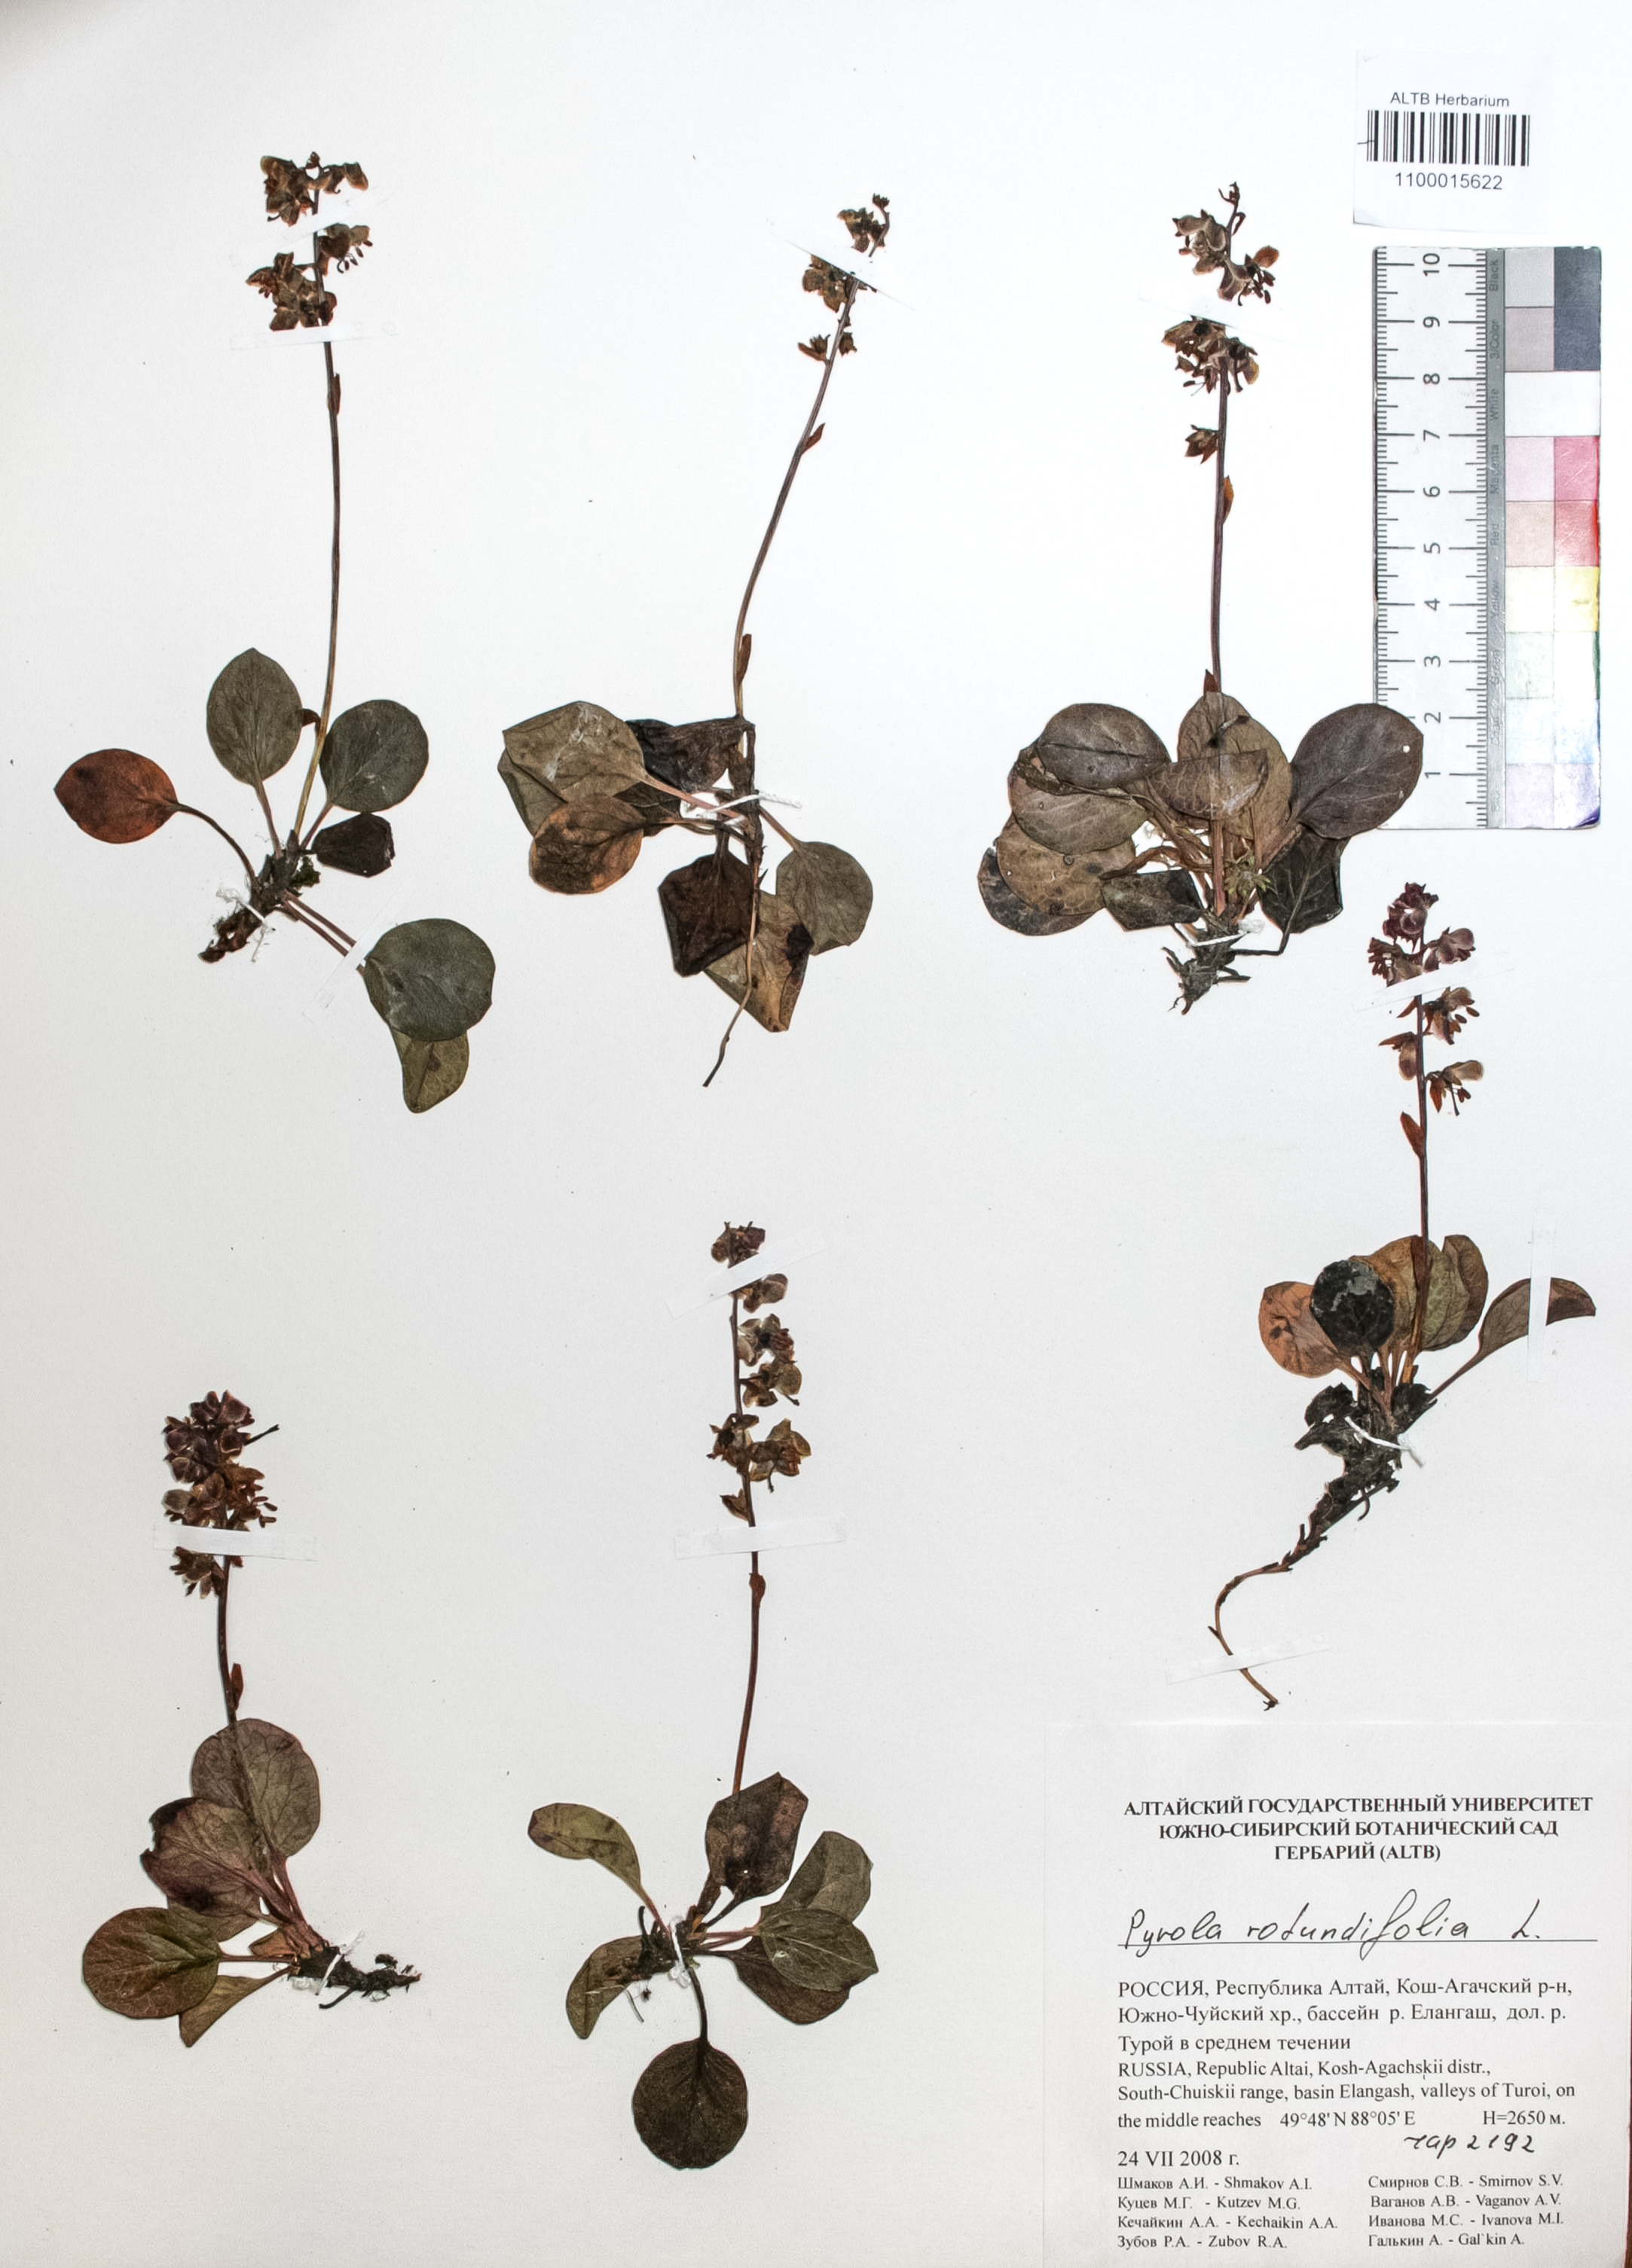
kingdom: Plantae
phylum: Tracheophyta
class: Magnoliopsida
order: Ericales
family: Ericaceae
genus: Pyrola
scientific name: Pyrola rotundifolia
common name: Round-leaved wintergreen
